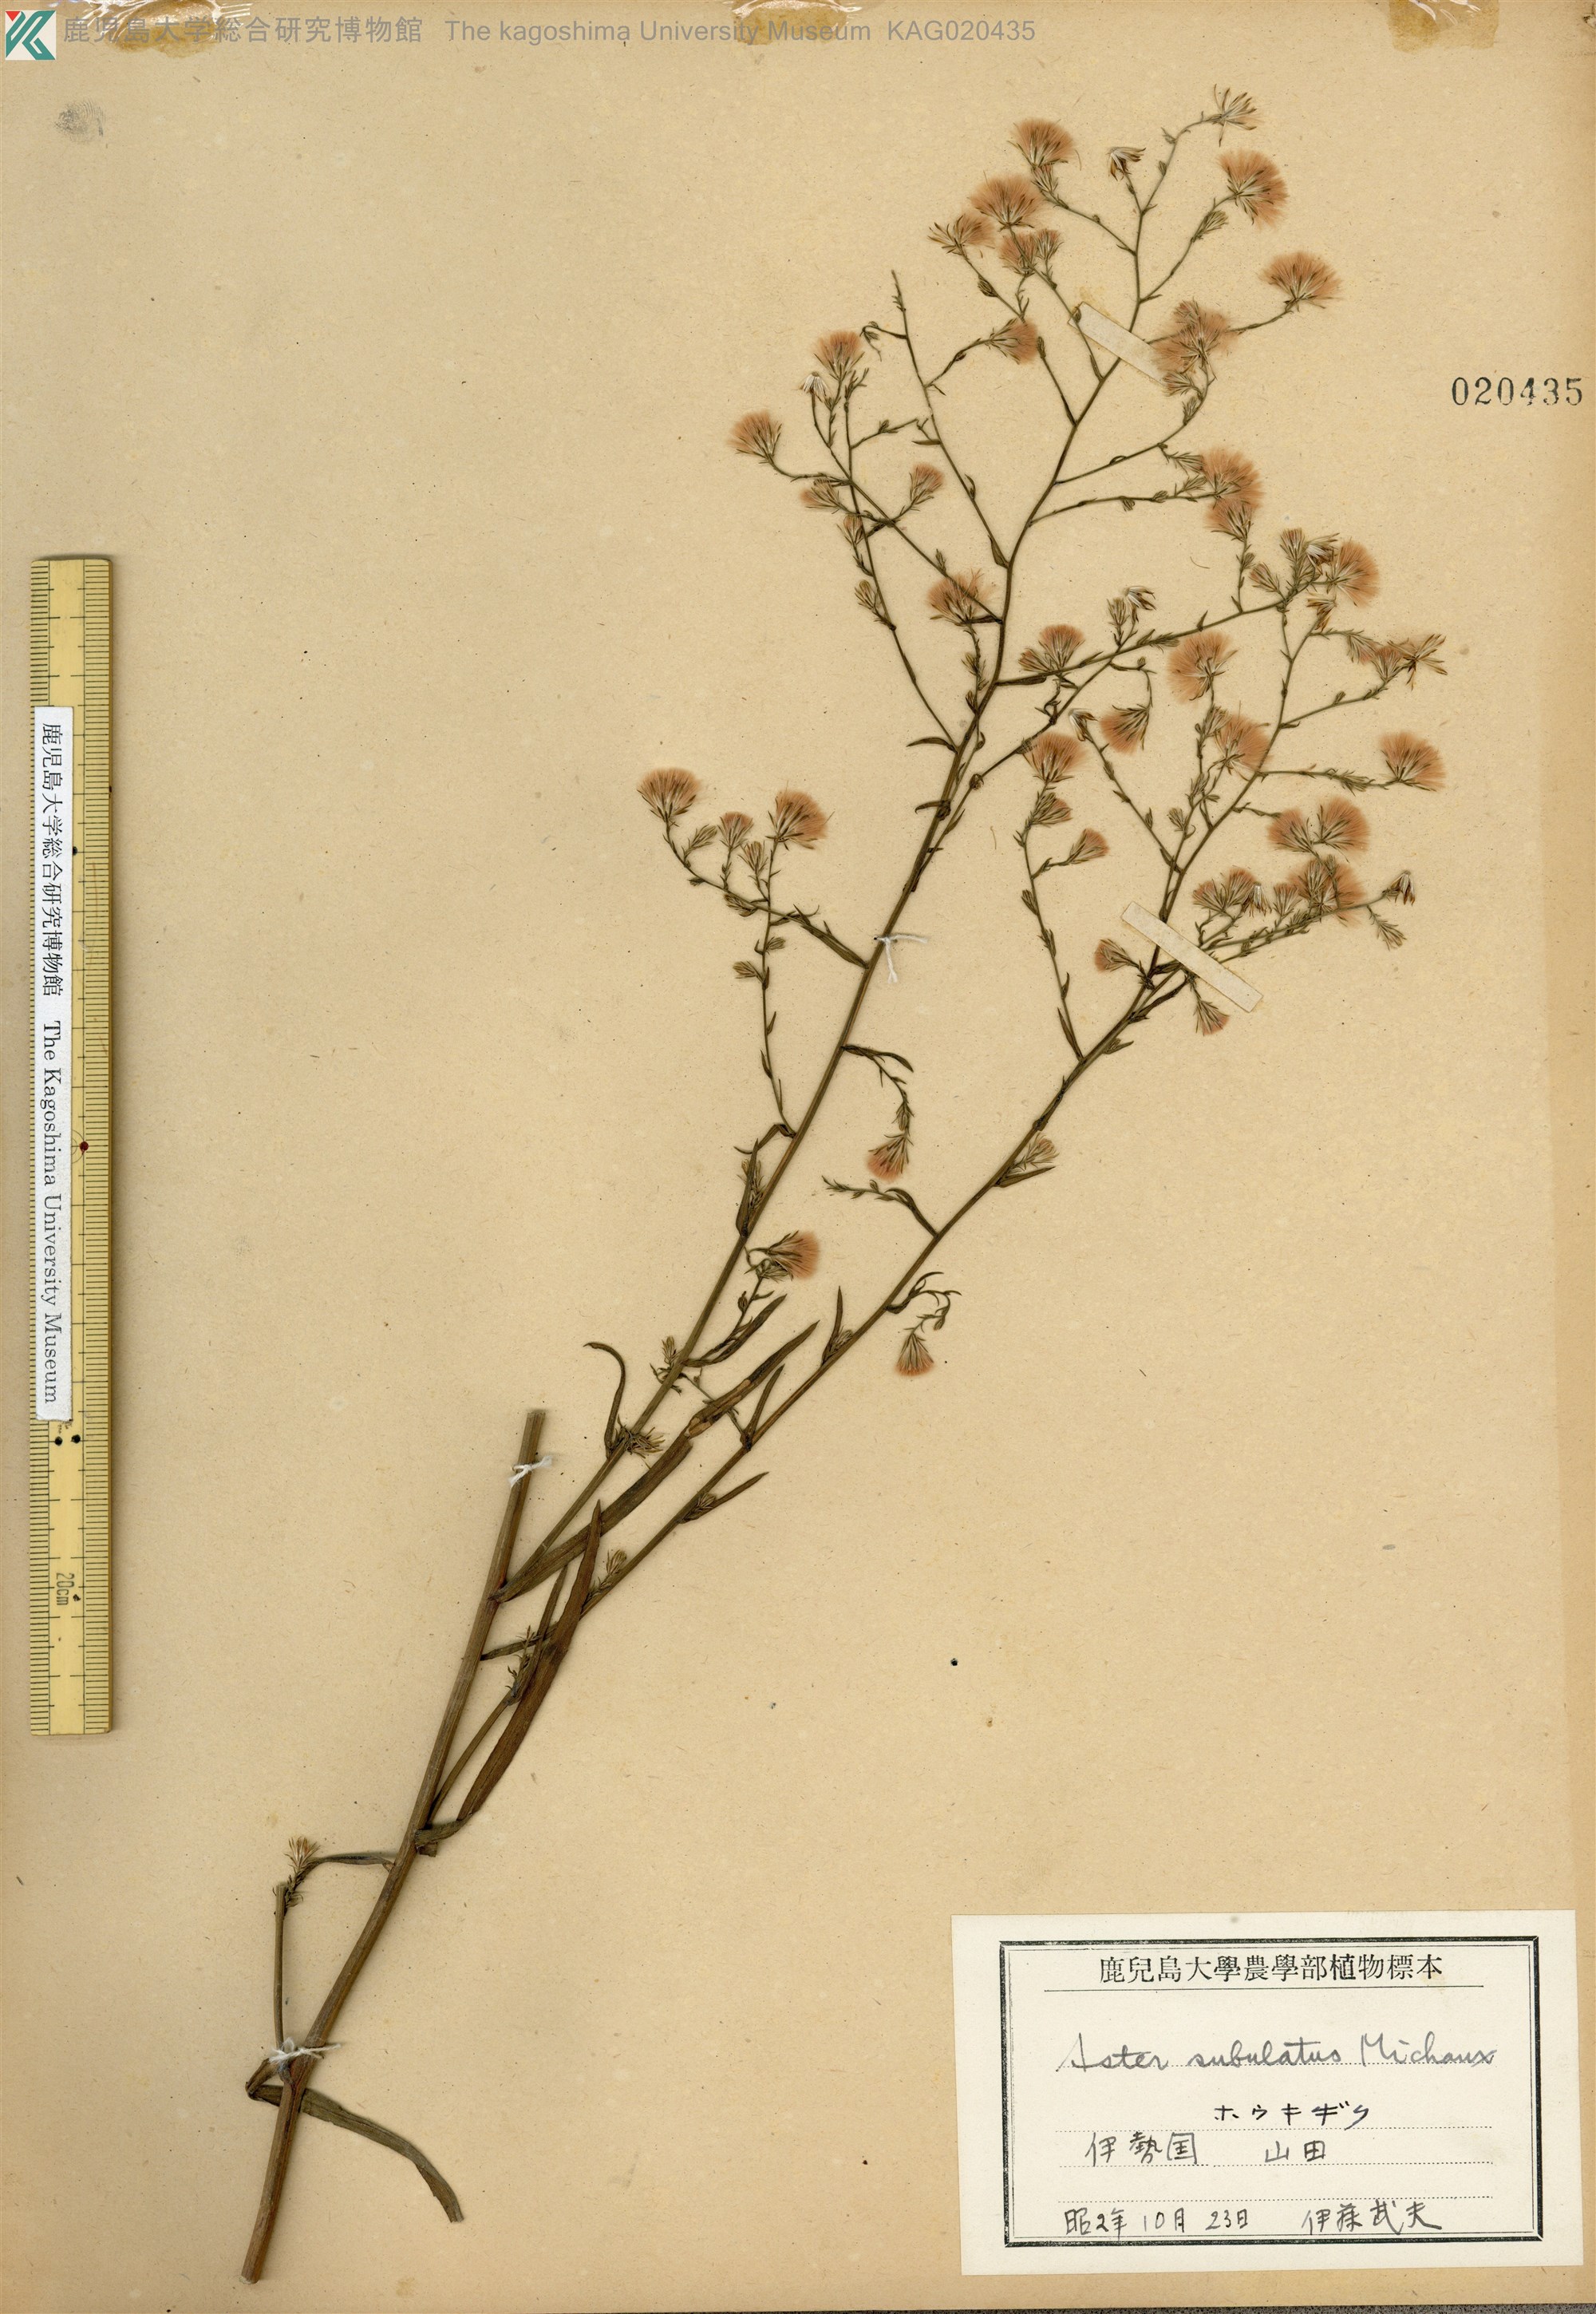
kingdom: Plantae
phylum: Tracheophyta
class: Magnoliopsida
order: Asterales
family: Asteraceae
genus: Symphyotrichum
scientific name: Symphyotrichum subulatum
